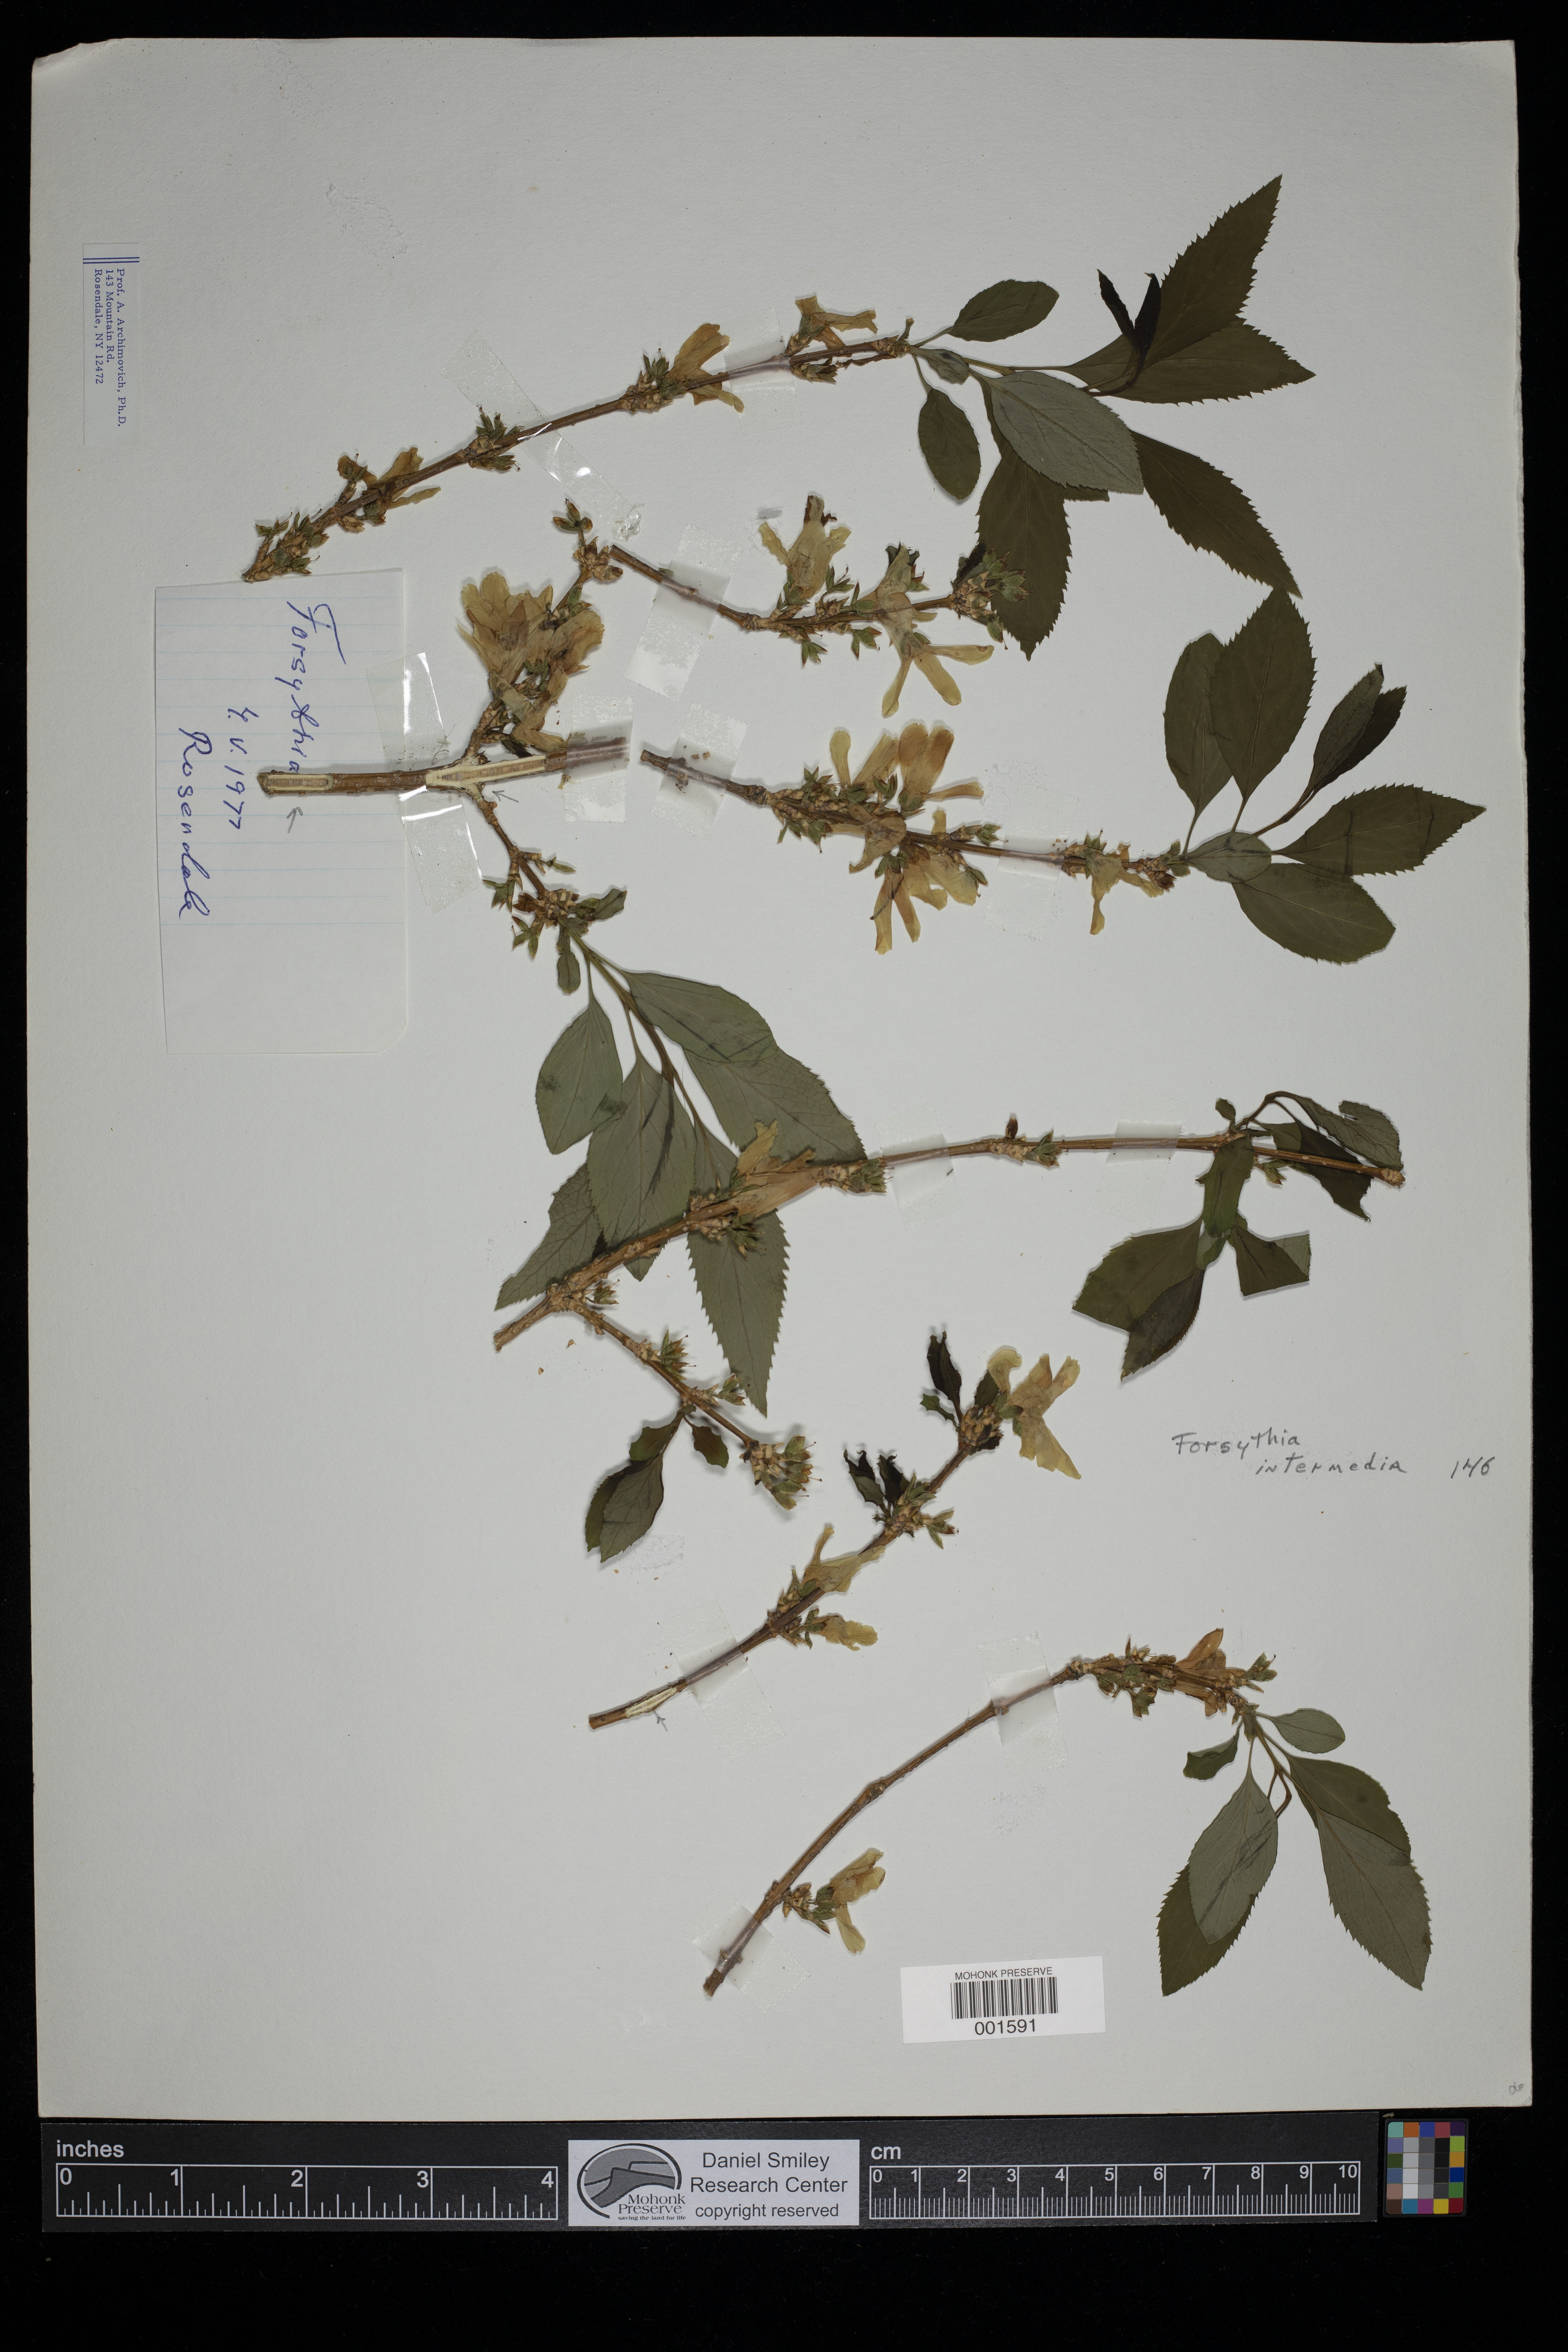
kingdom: Plantae
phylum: Tracheophyta
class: Magnoliopsida
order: Lamiales
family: Oleaceae
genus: Forsythia
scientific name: Forsythia intermedia
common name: Forsythia
